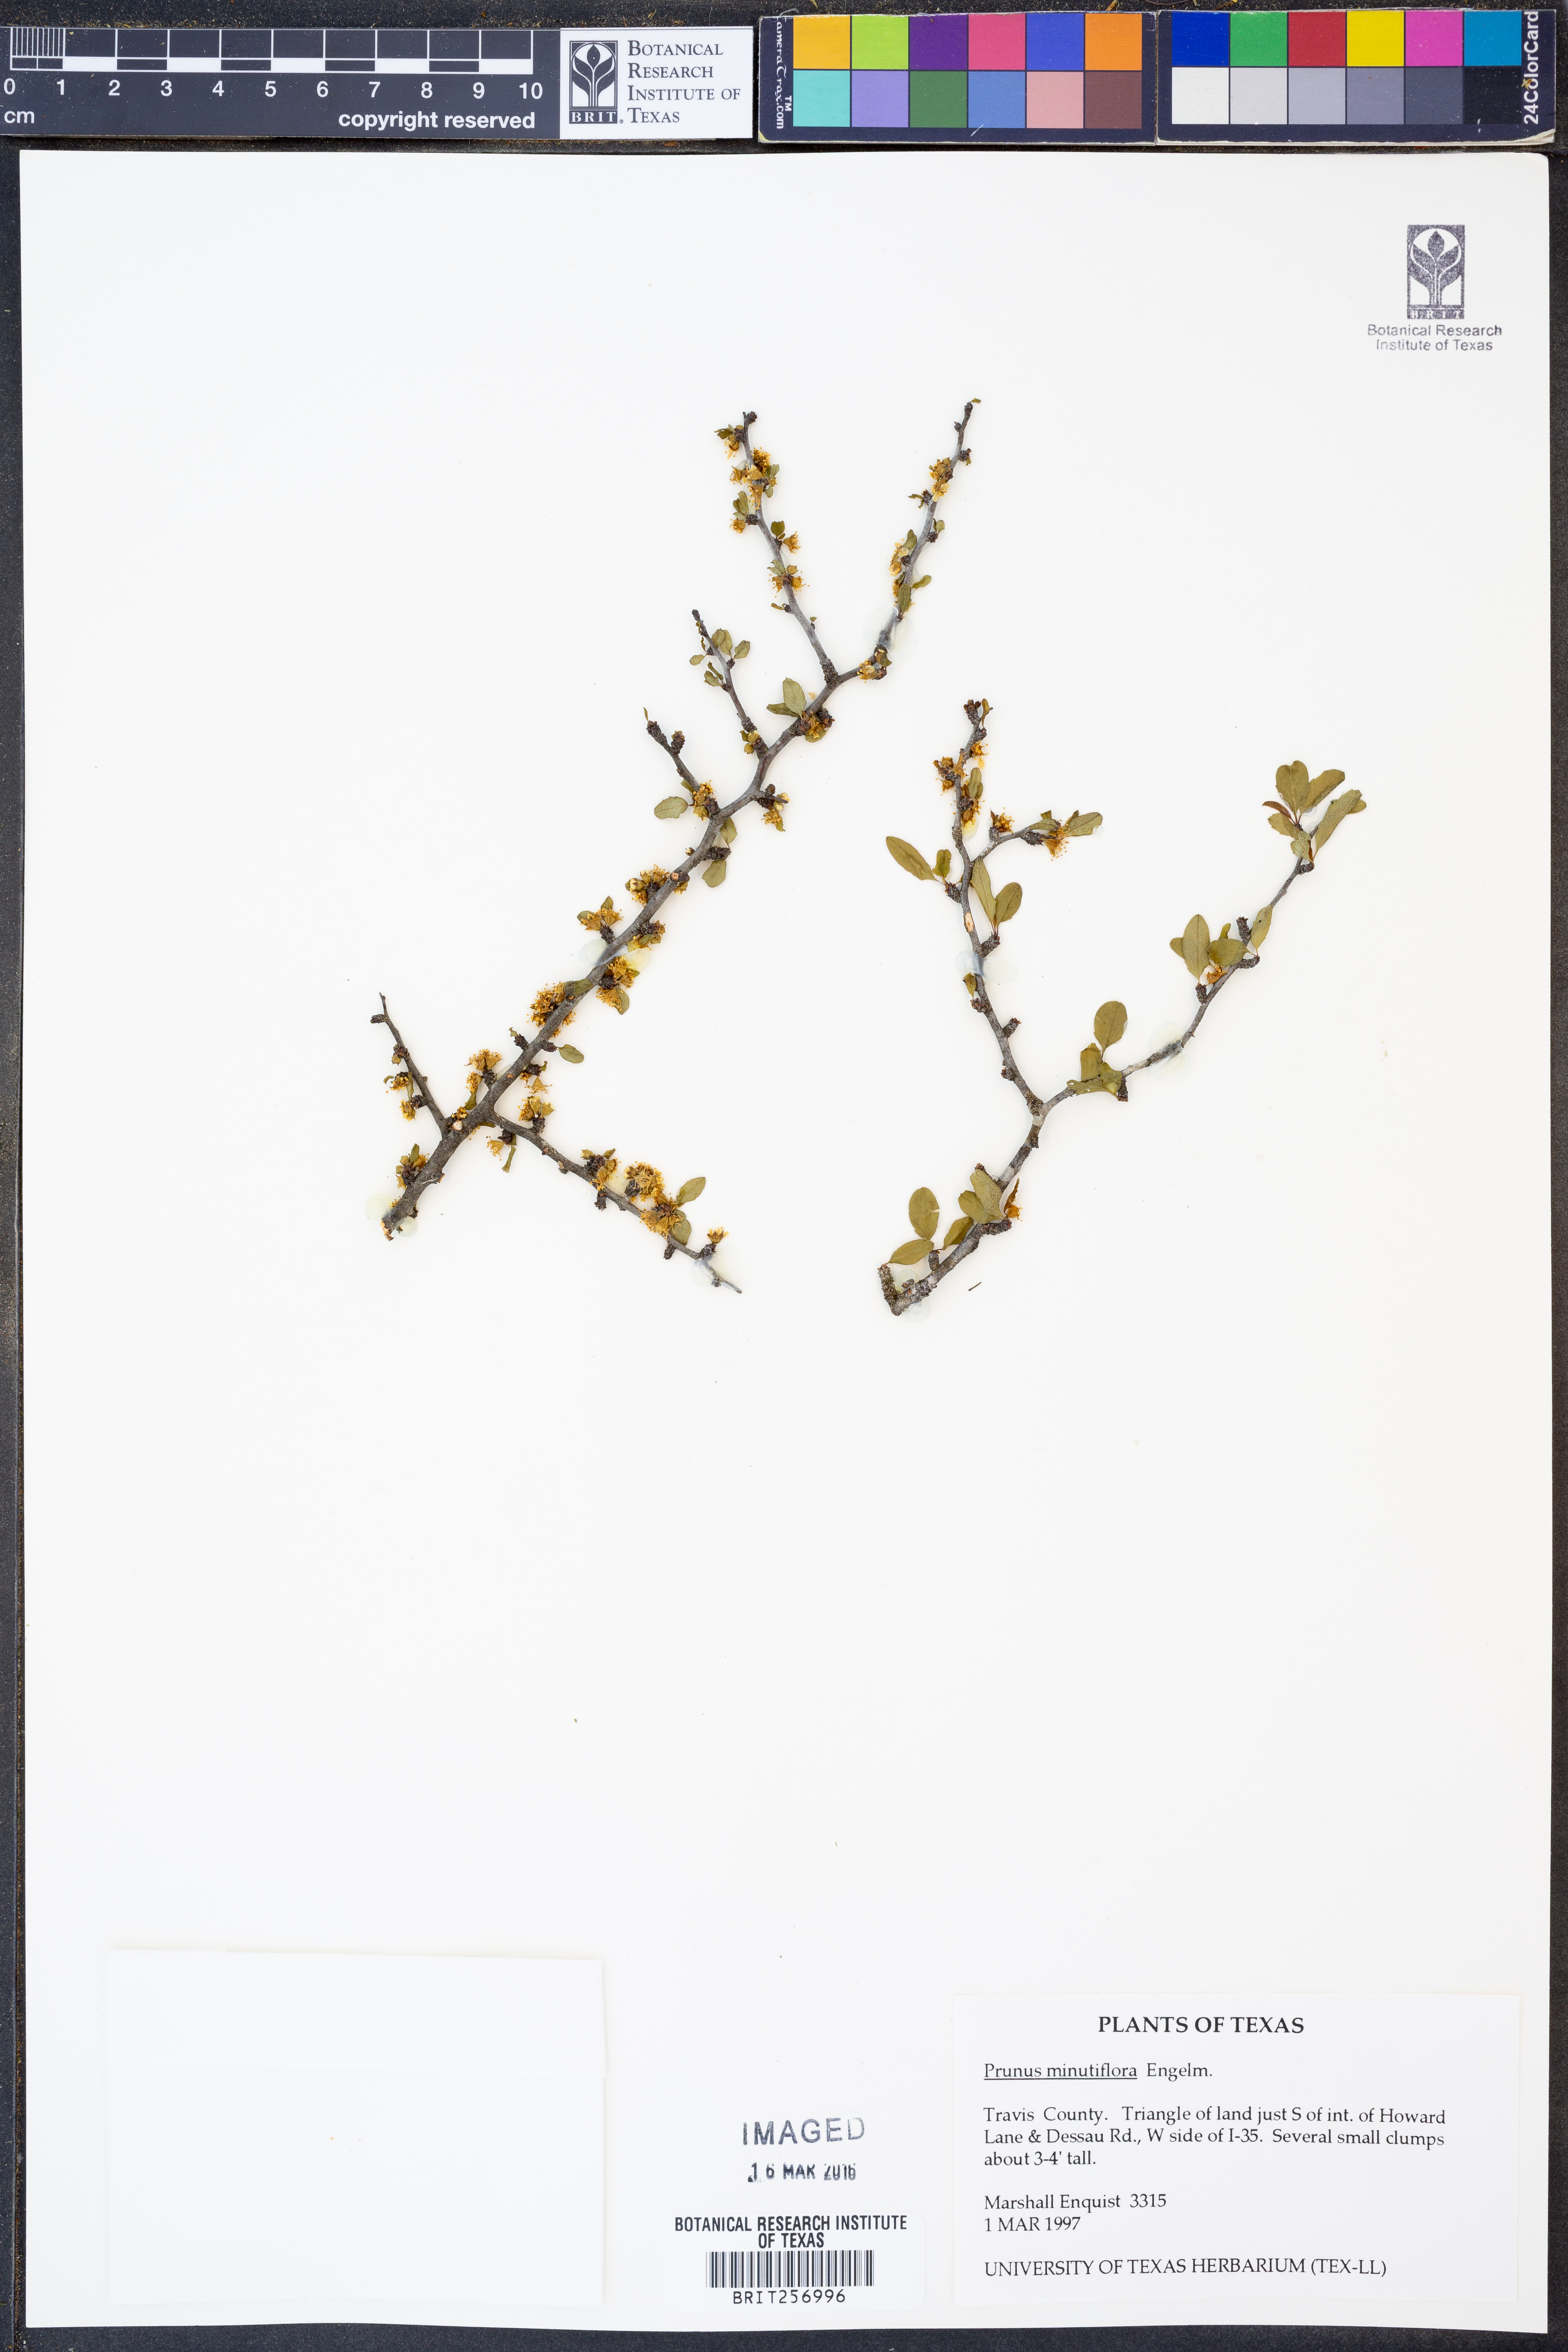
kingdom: Plantae
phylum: Tracheophyta
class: Magnoliopsida
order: Rosales
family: Rosaceae
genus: Prunus
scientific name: Prunus minutiflora
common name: Texas almond
